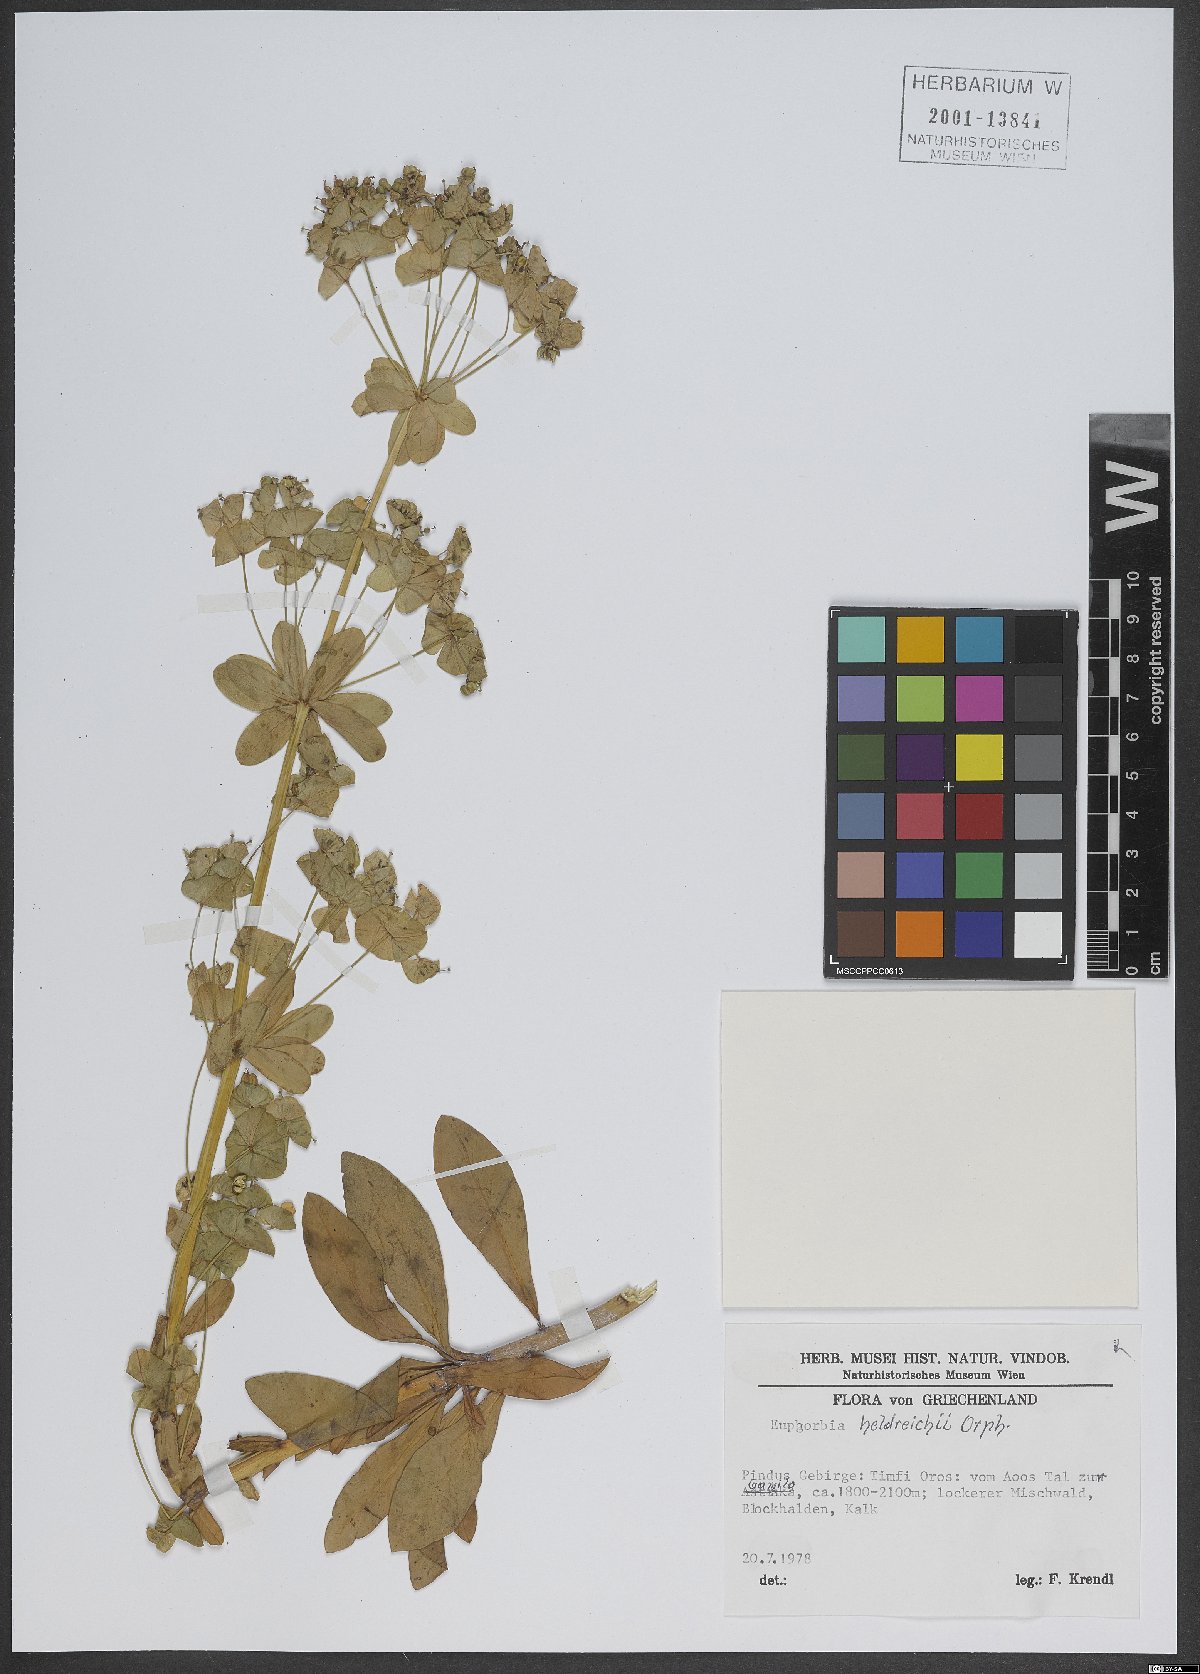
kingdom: Plantae
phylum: Tracheophyta
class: Magnoliopsida
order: Malpighiales
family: Euphorbiaceae
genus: Euphorbia
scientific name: Euphorbia heldreichii
